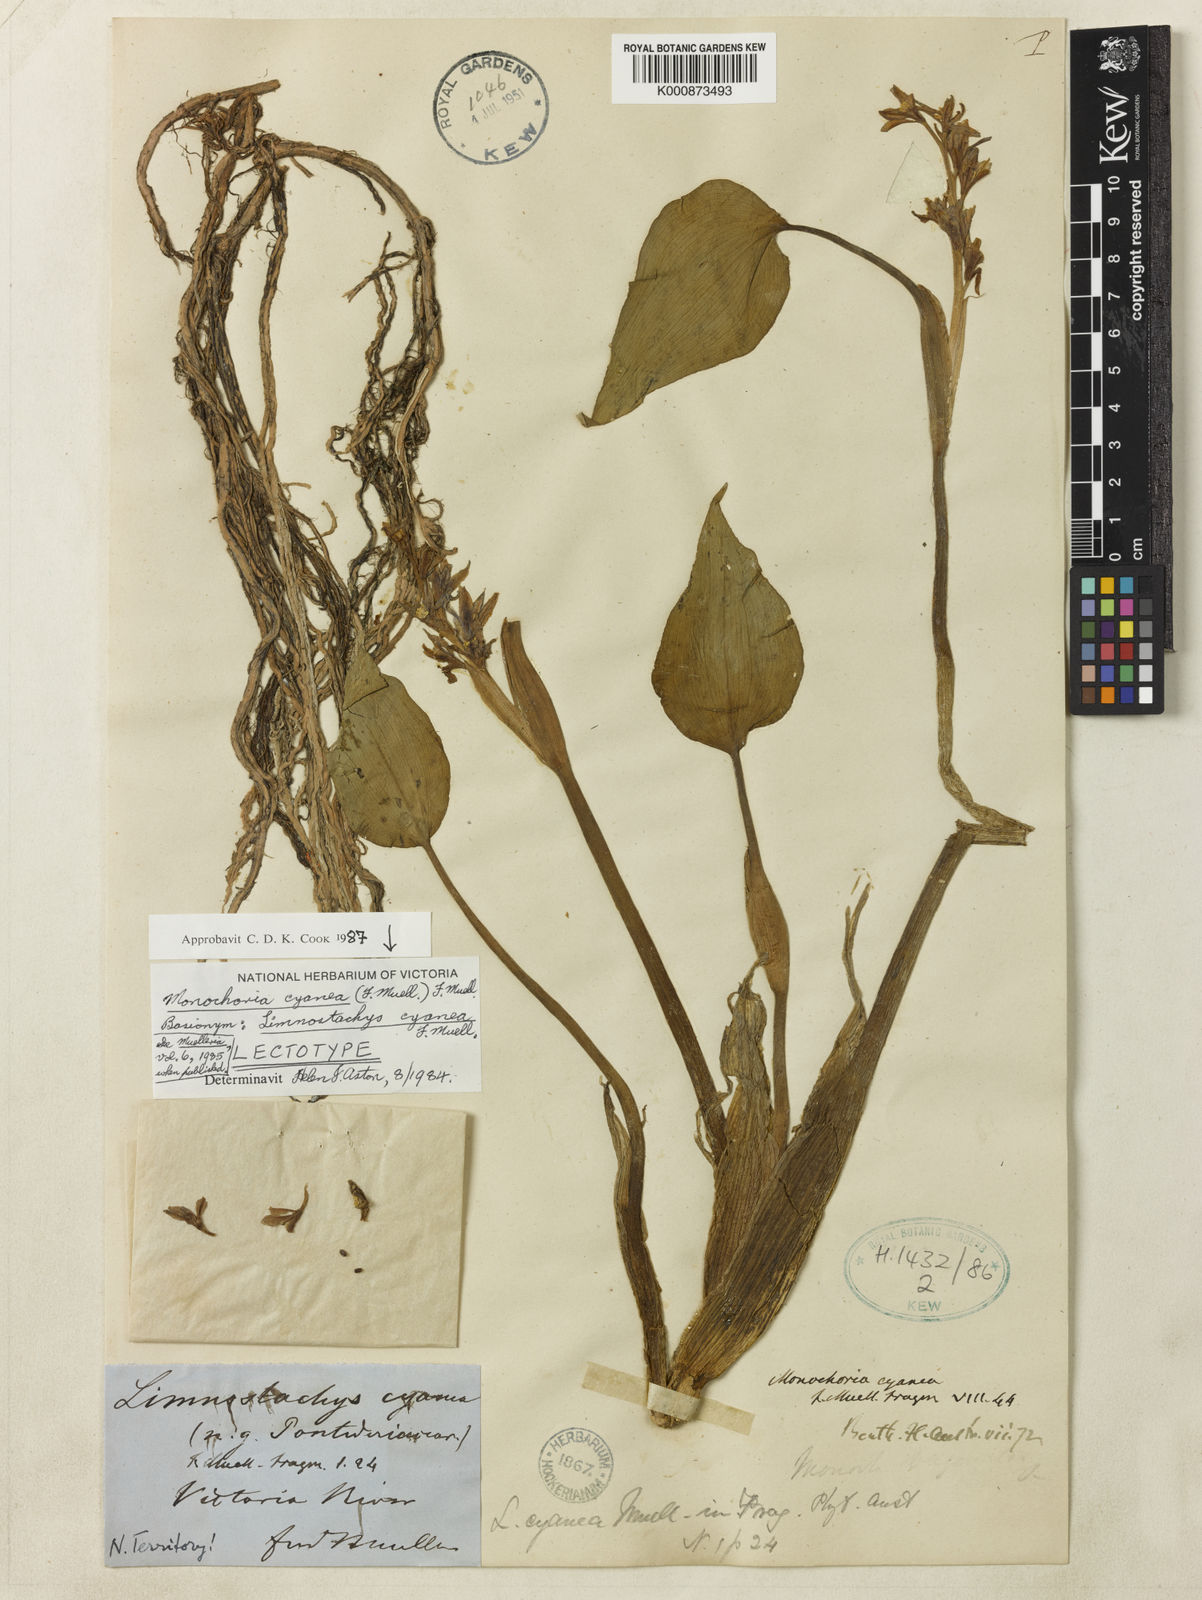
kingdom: Plantae
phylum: Tracheophyta
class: Liliopsida
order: Commelinales
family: Pontederiaceae
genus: Pontederia
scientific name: Pontederia cyanea
